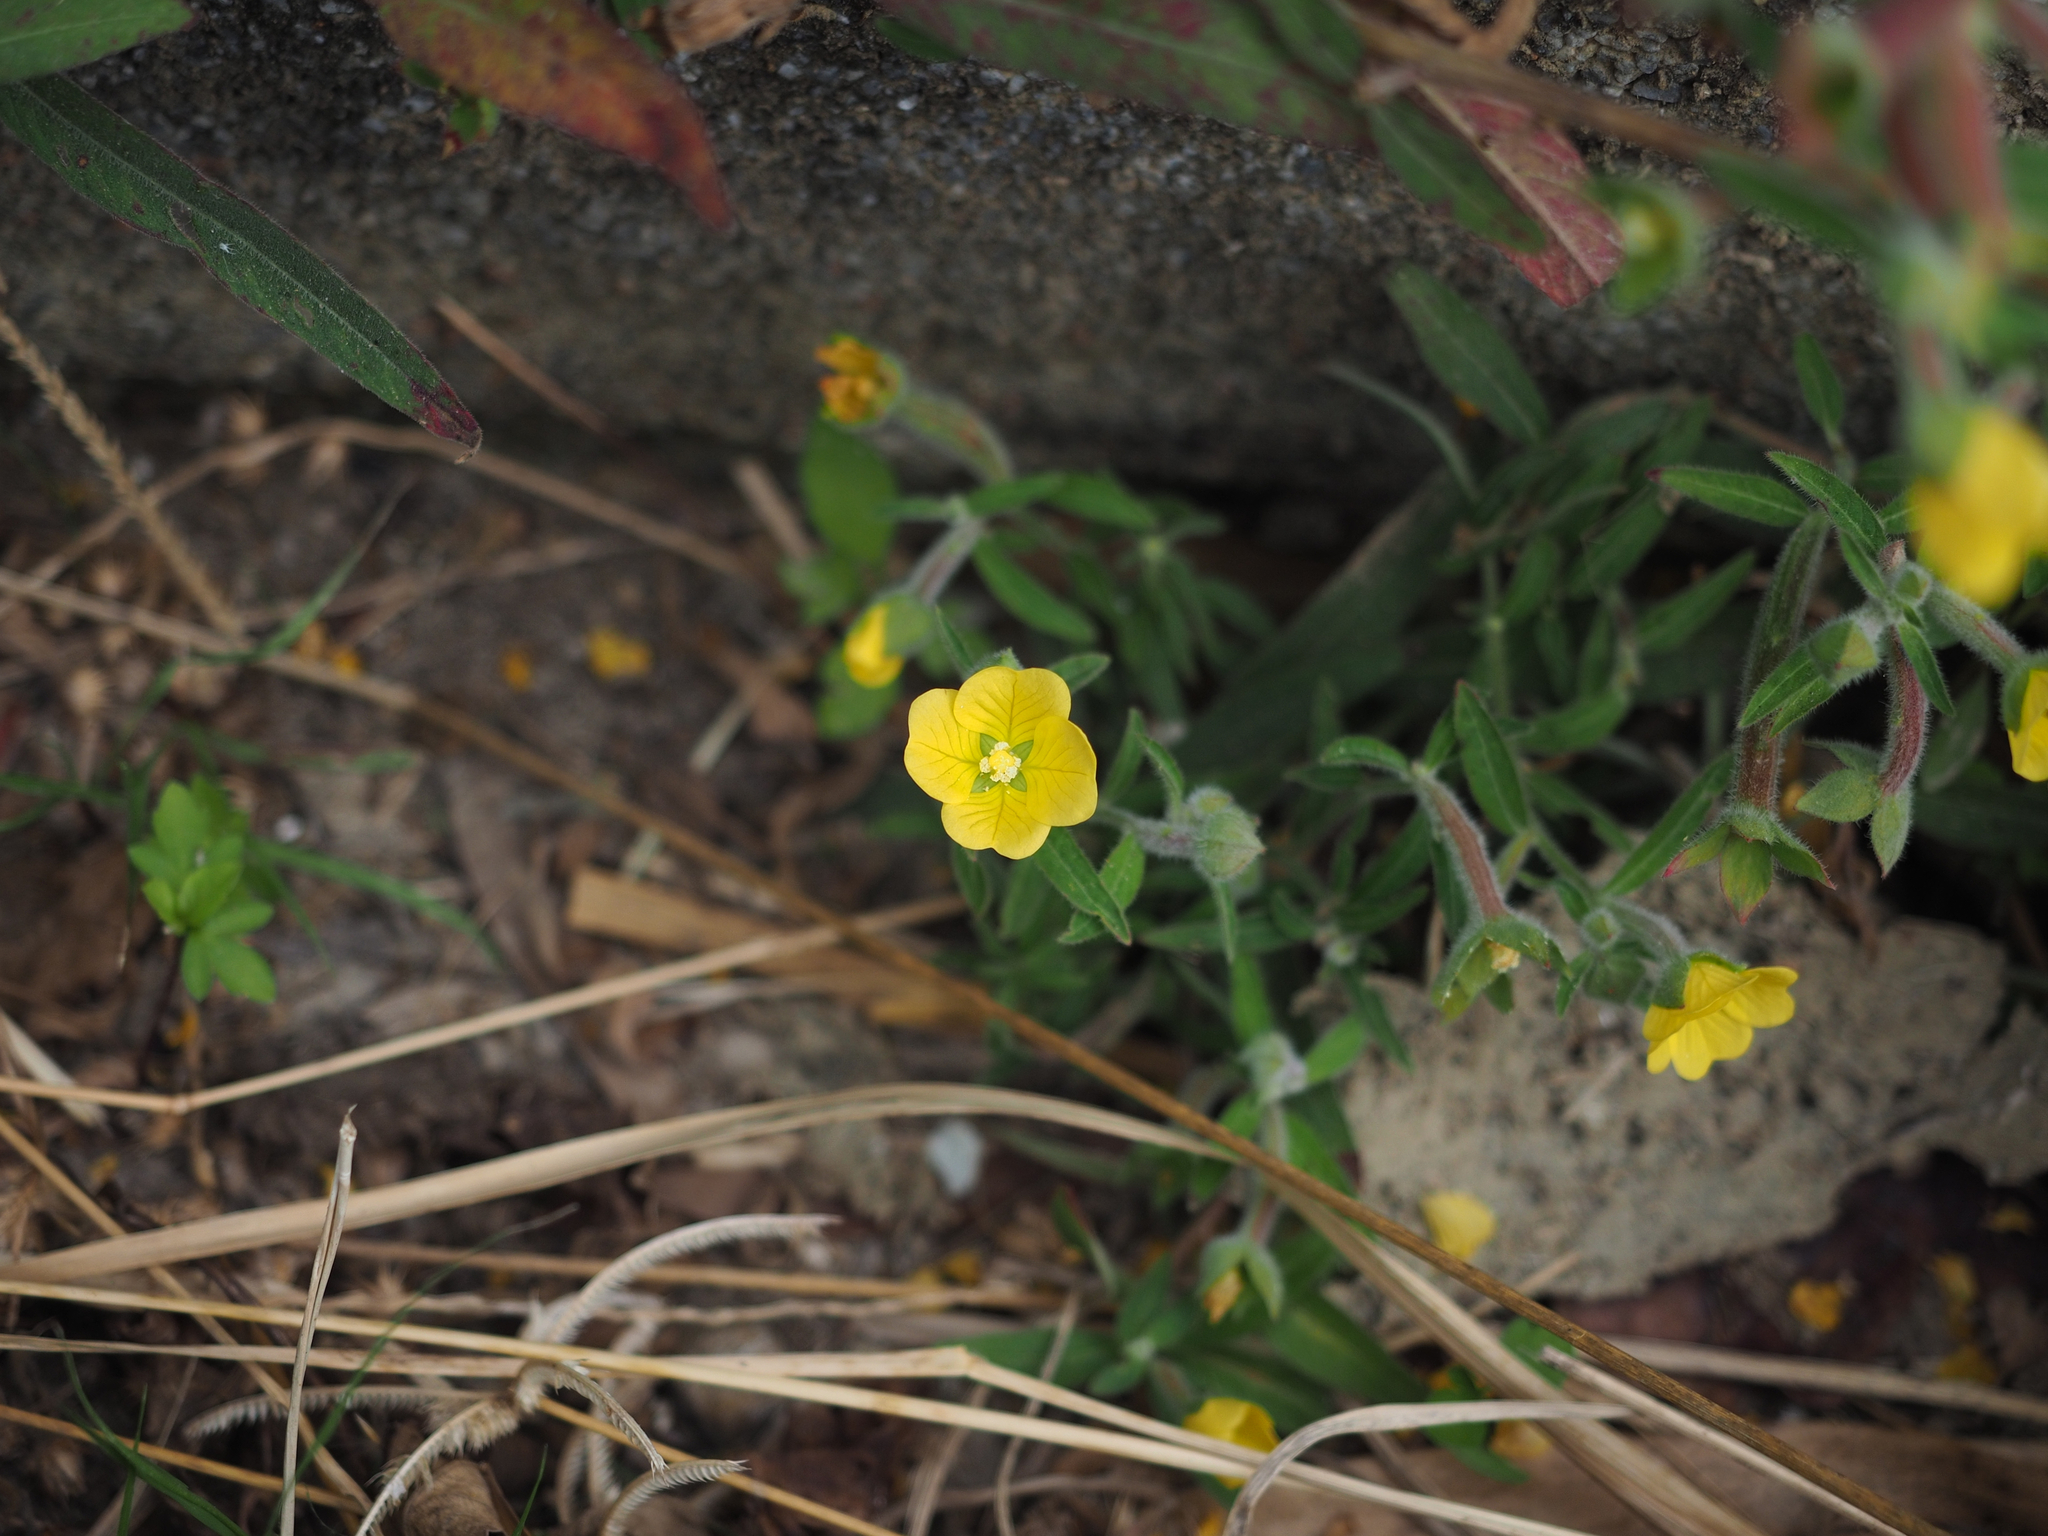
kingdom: Plantae
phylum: Tracheophyta
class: Magnoliopsida
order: Myrtales
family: Onagraceae
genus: Ludwigia
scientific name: Ludwigia octovalvis
